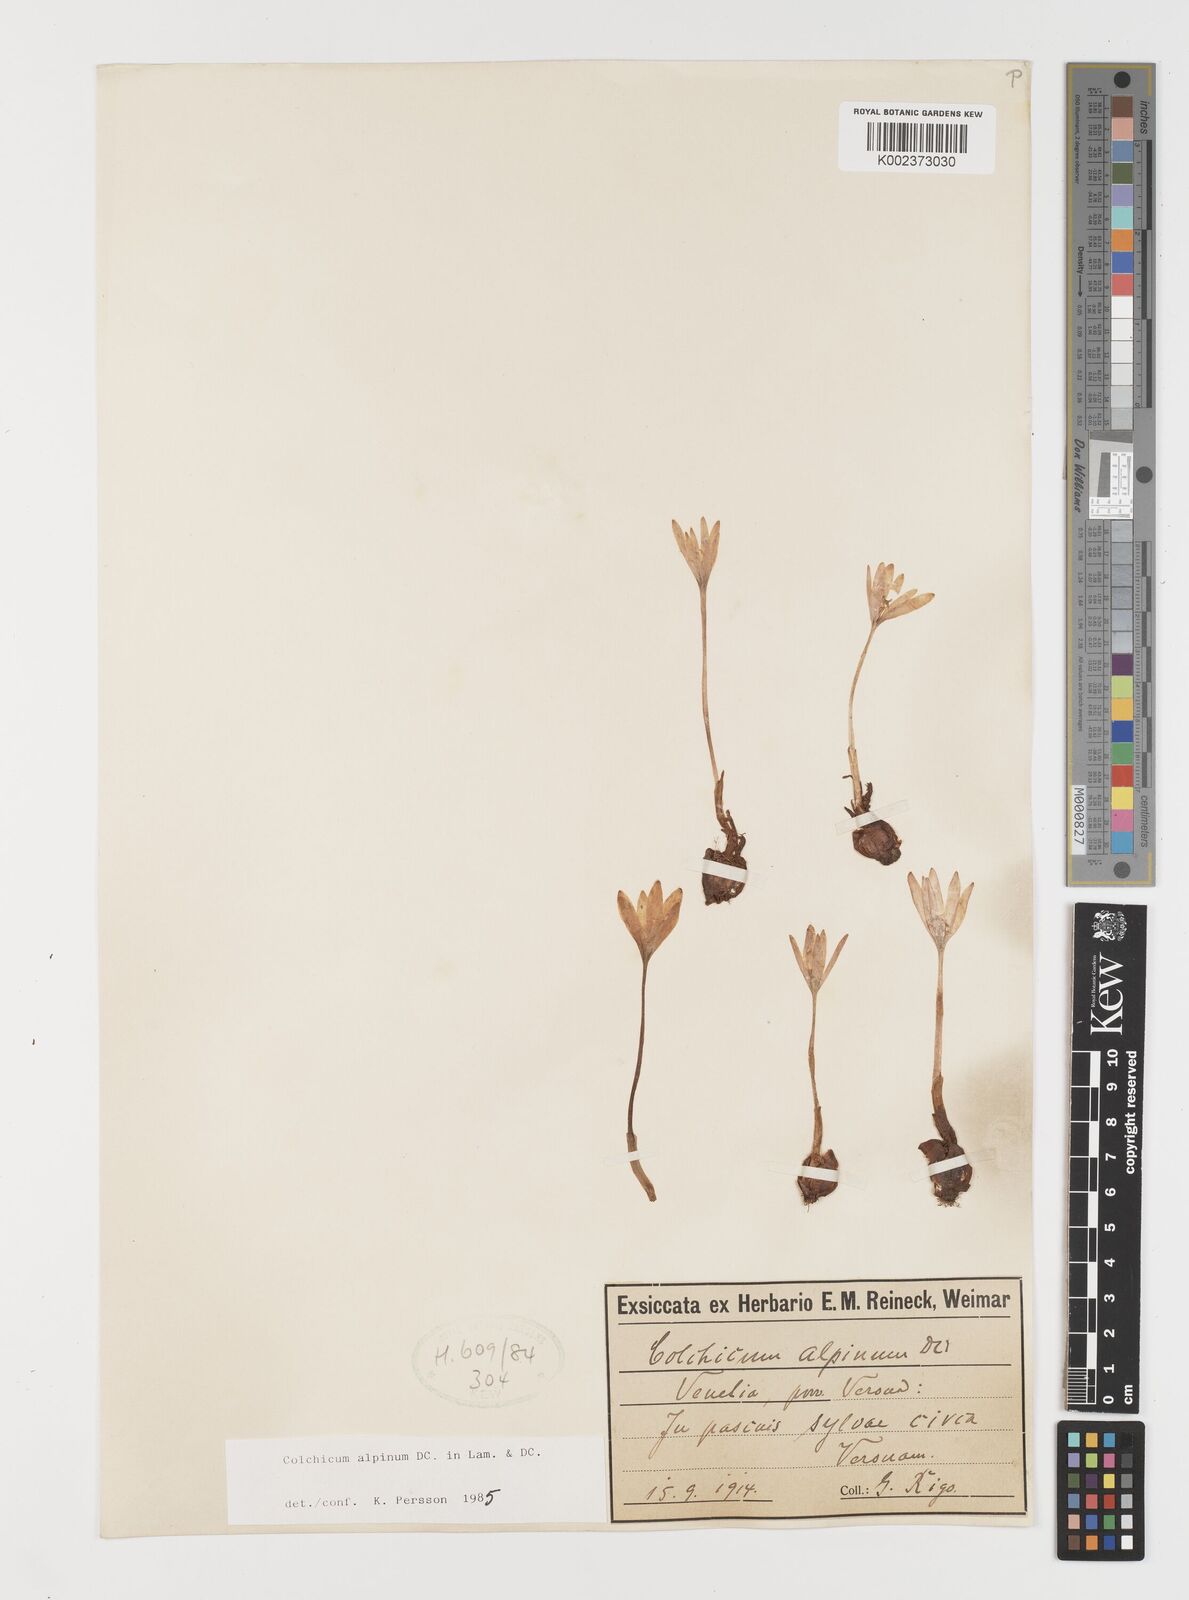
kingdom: Plantae
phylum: Tracheophyta
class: Liliopsida
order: Liliales
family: Colchicaceae
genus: Colchicum
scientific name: Colchicum alpinum
